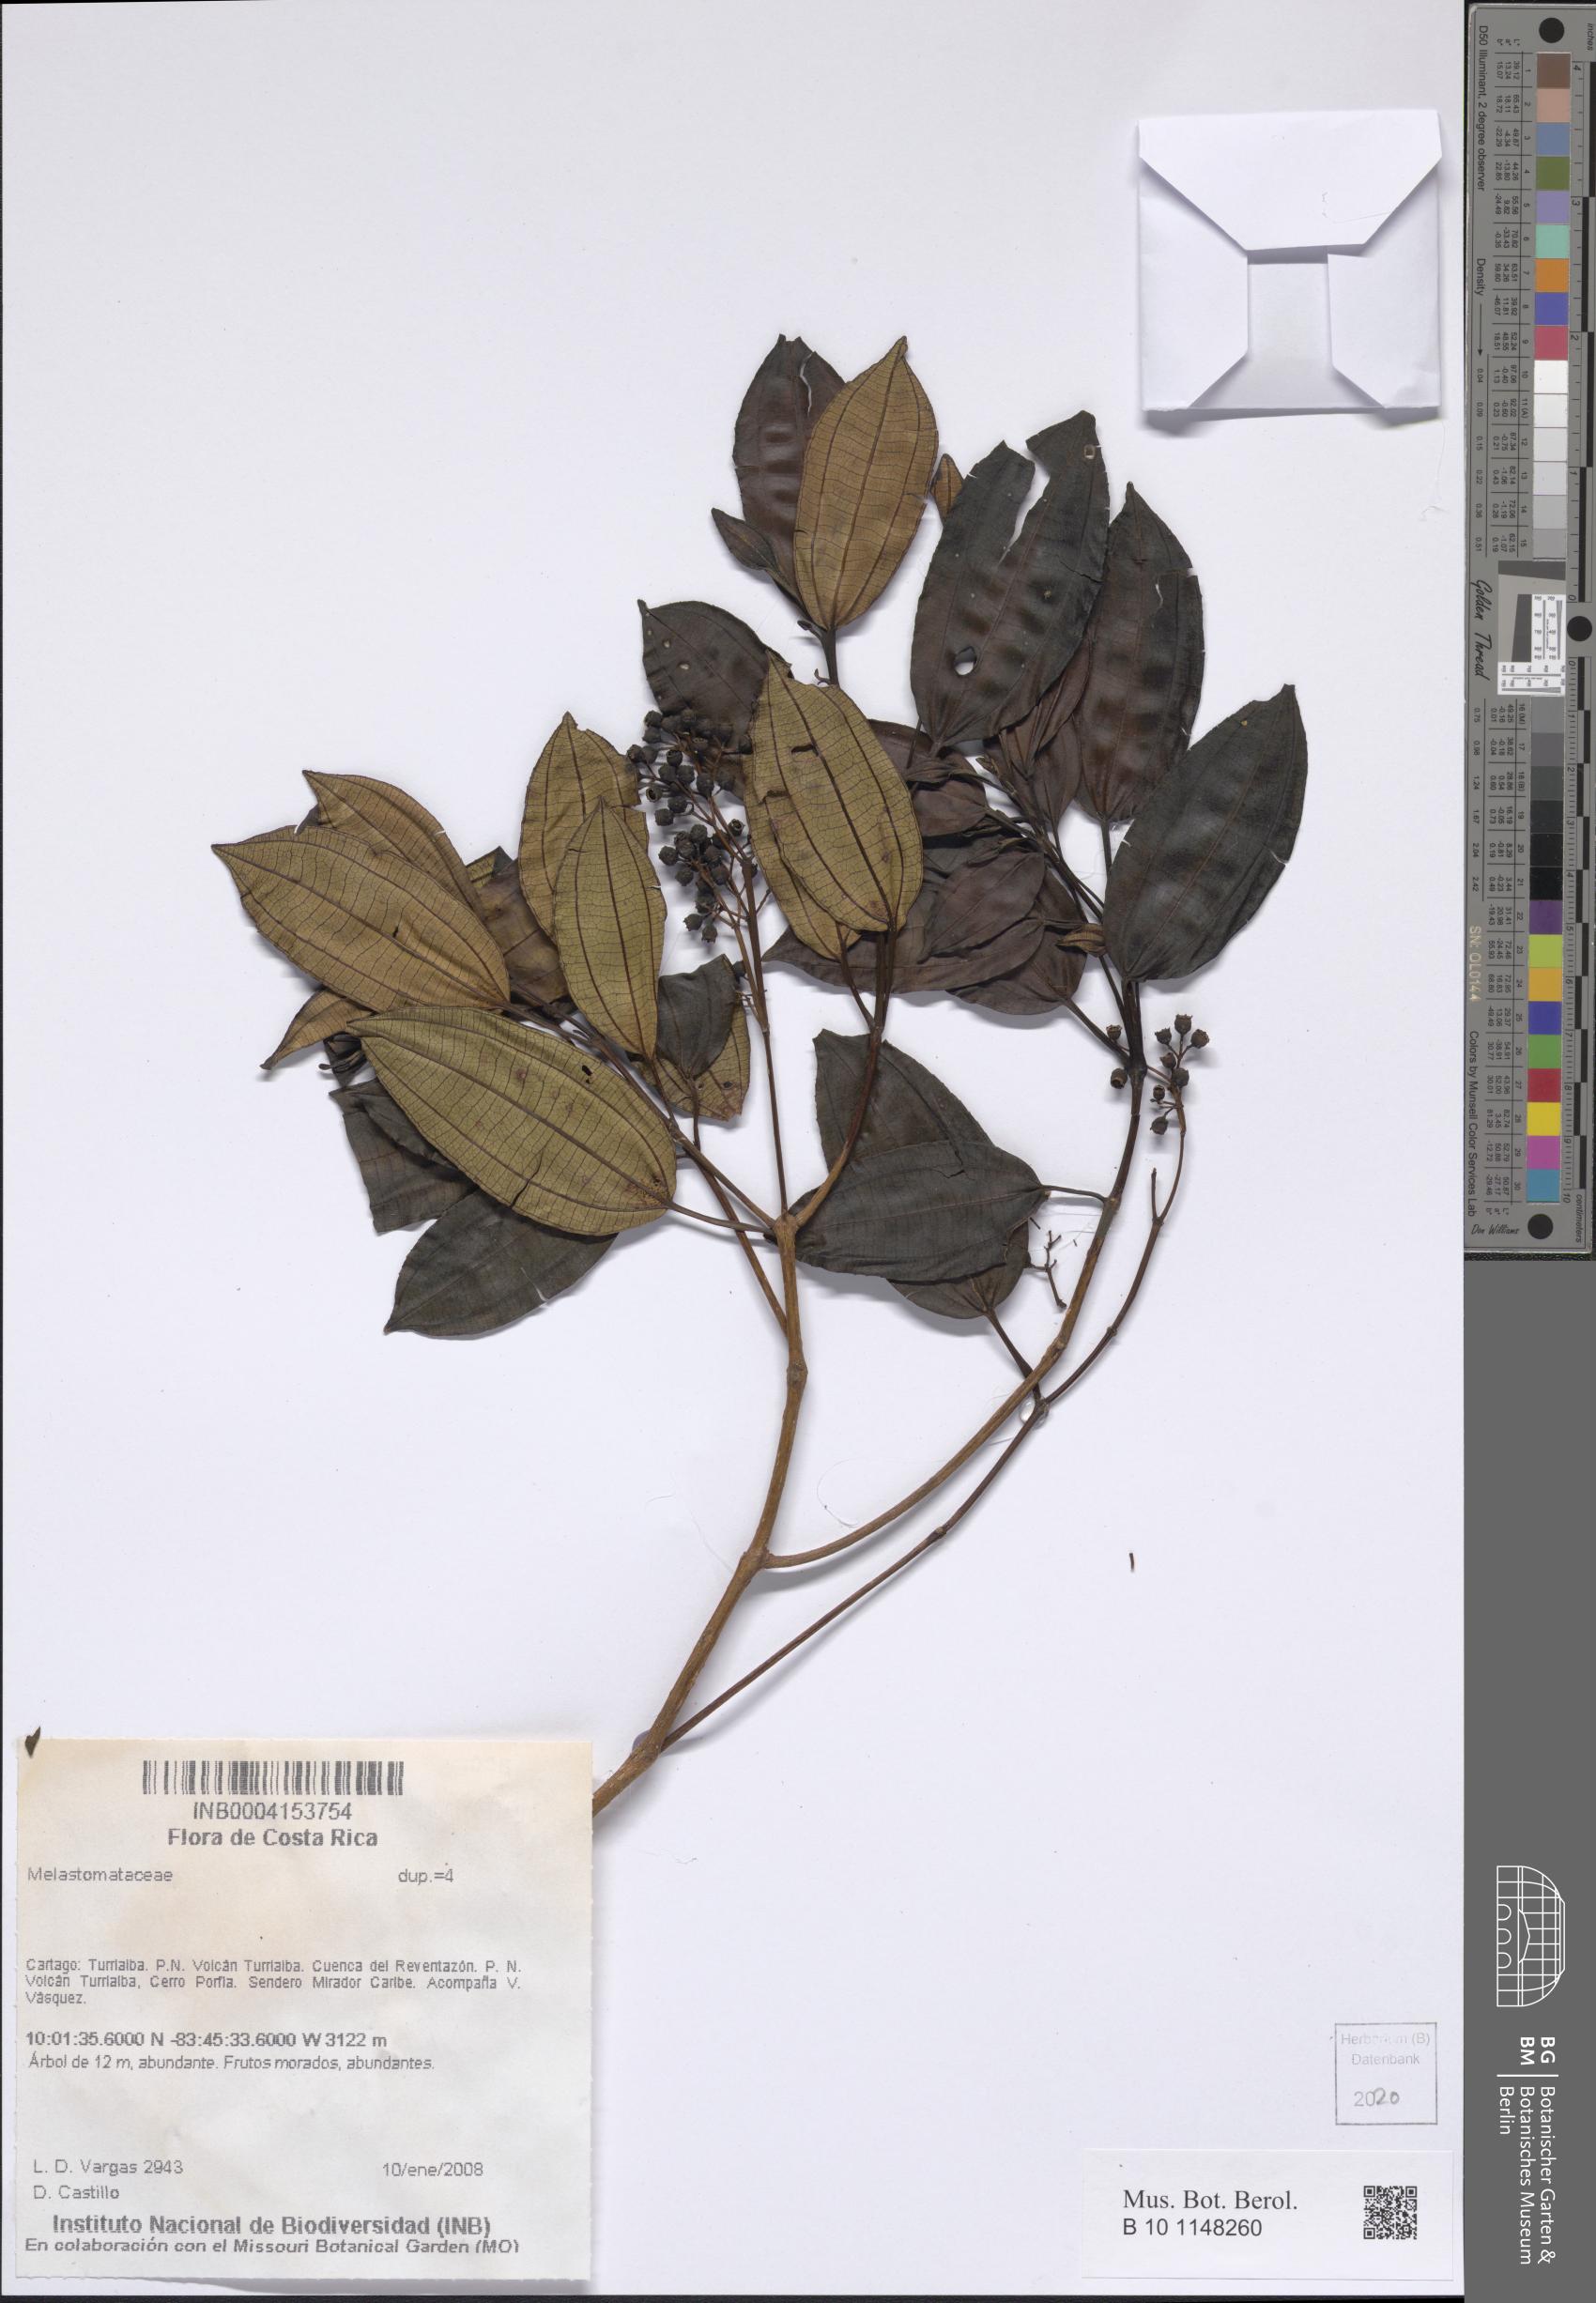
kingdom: Plantae
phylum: Tracheophyta
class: Magnoliopsida
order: Myrtales
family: Melastomataceae
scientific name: Melastomataceae
